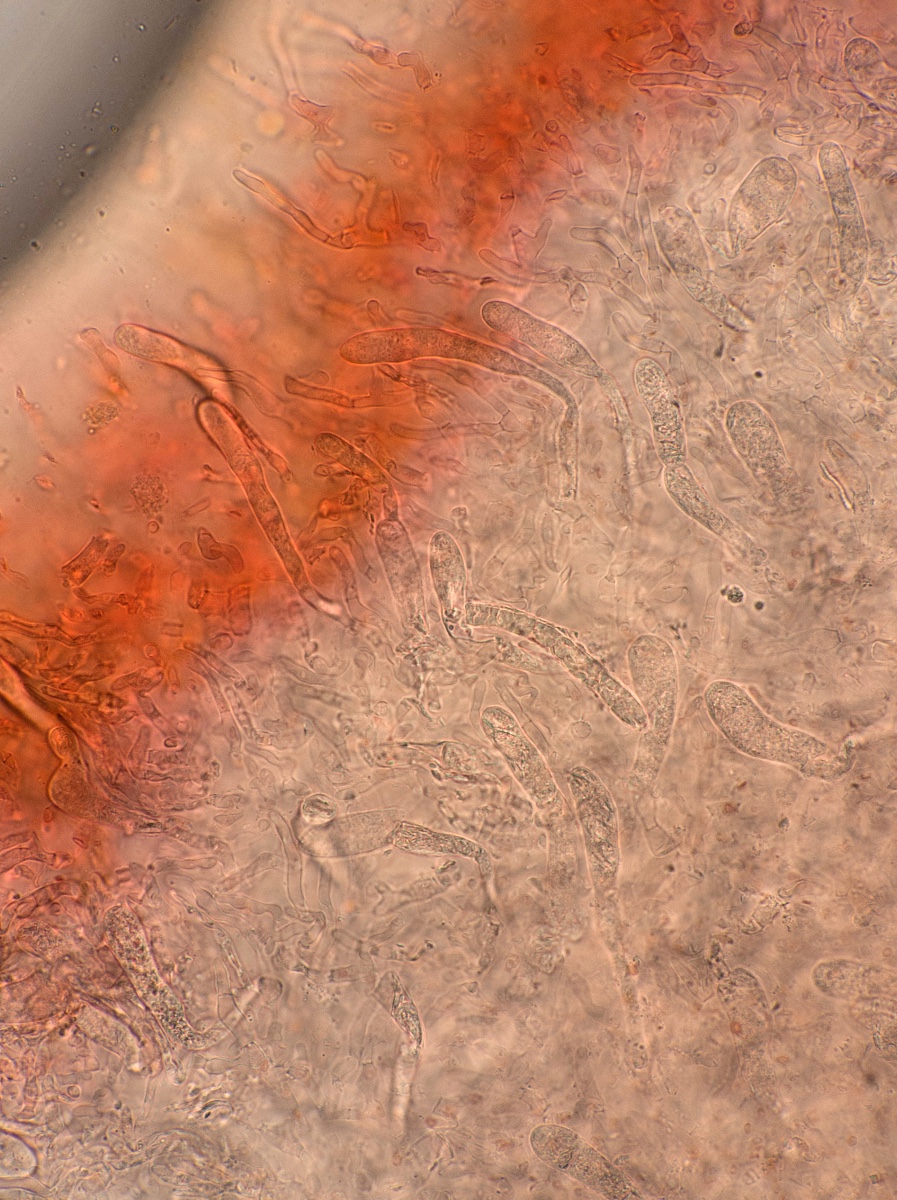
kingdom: Fungi
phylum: Basidiomycota
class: Agaricomycetes
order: Russulales
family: Russulaceae
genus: Russula
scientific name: Russula
